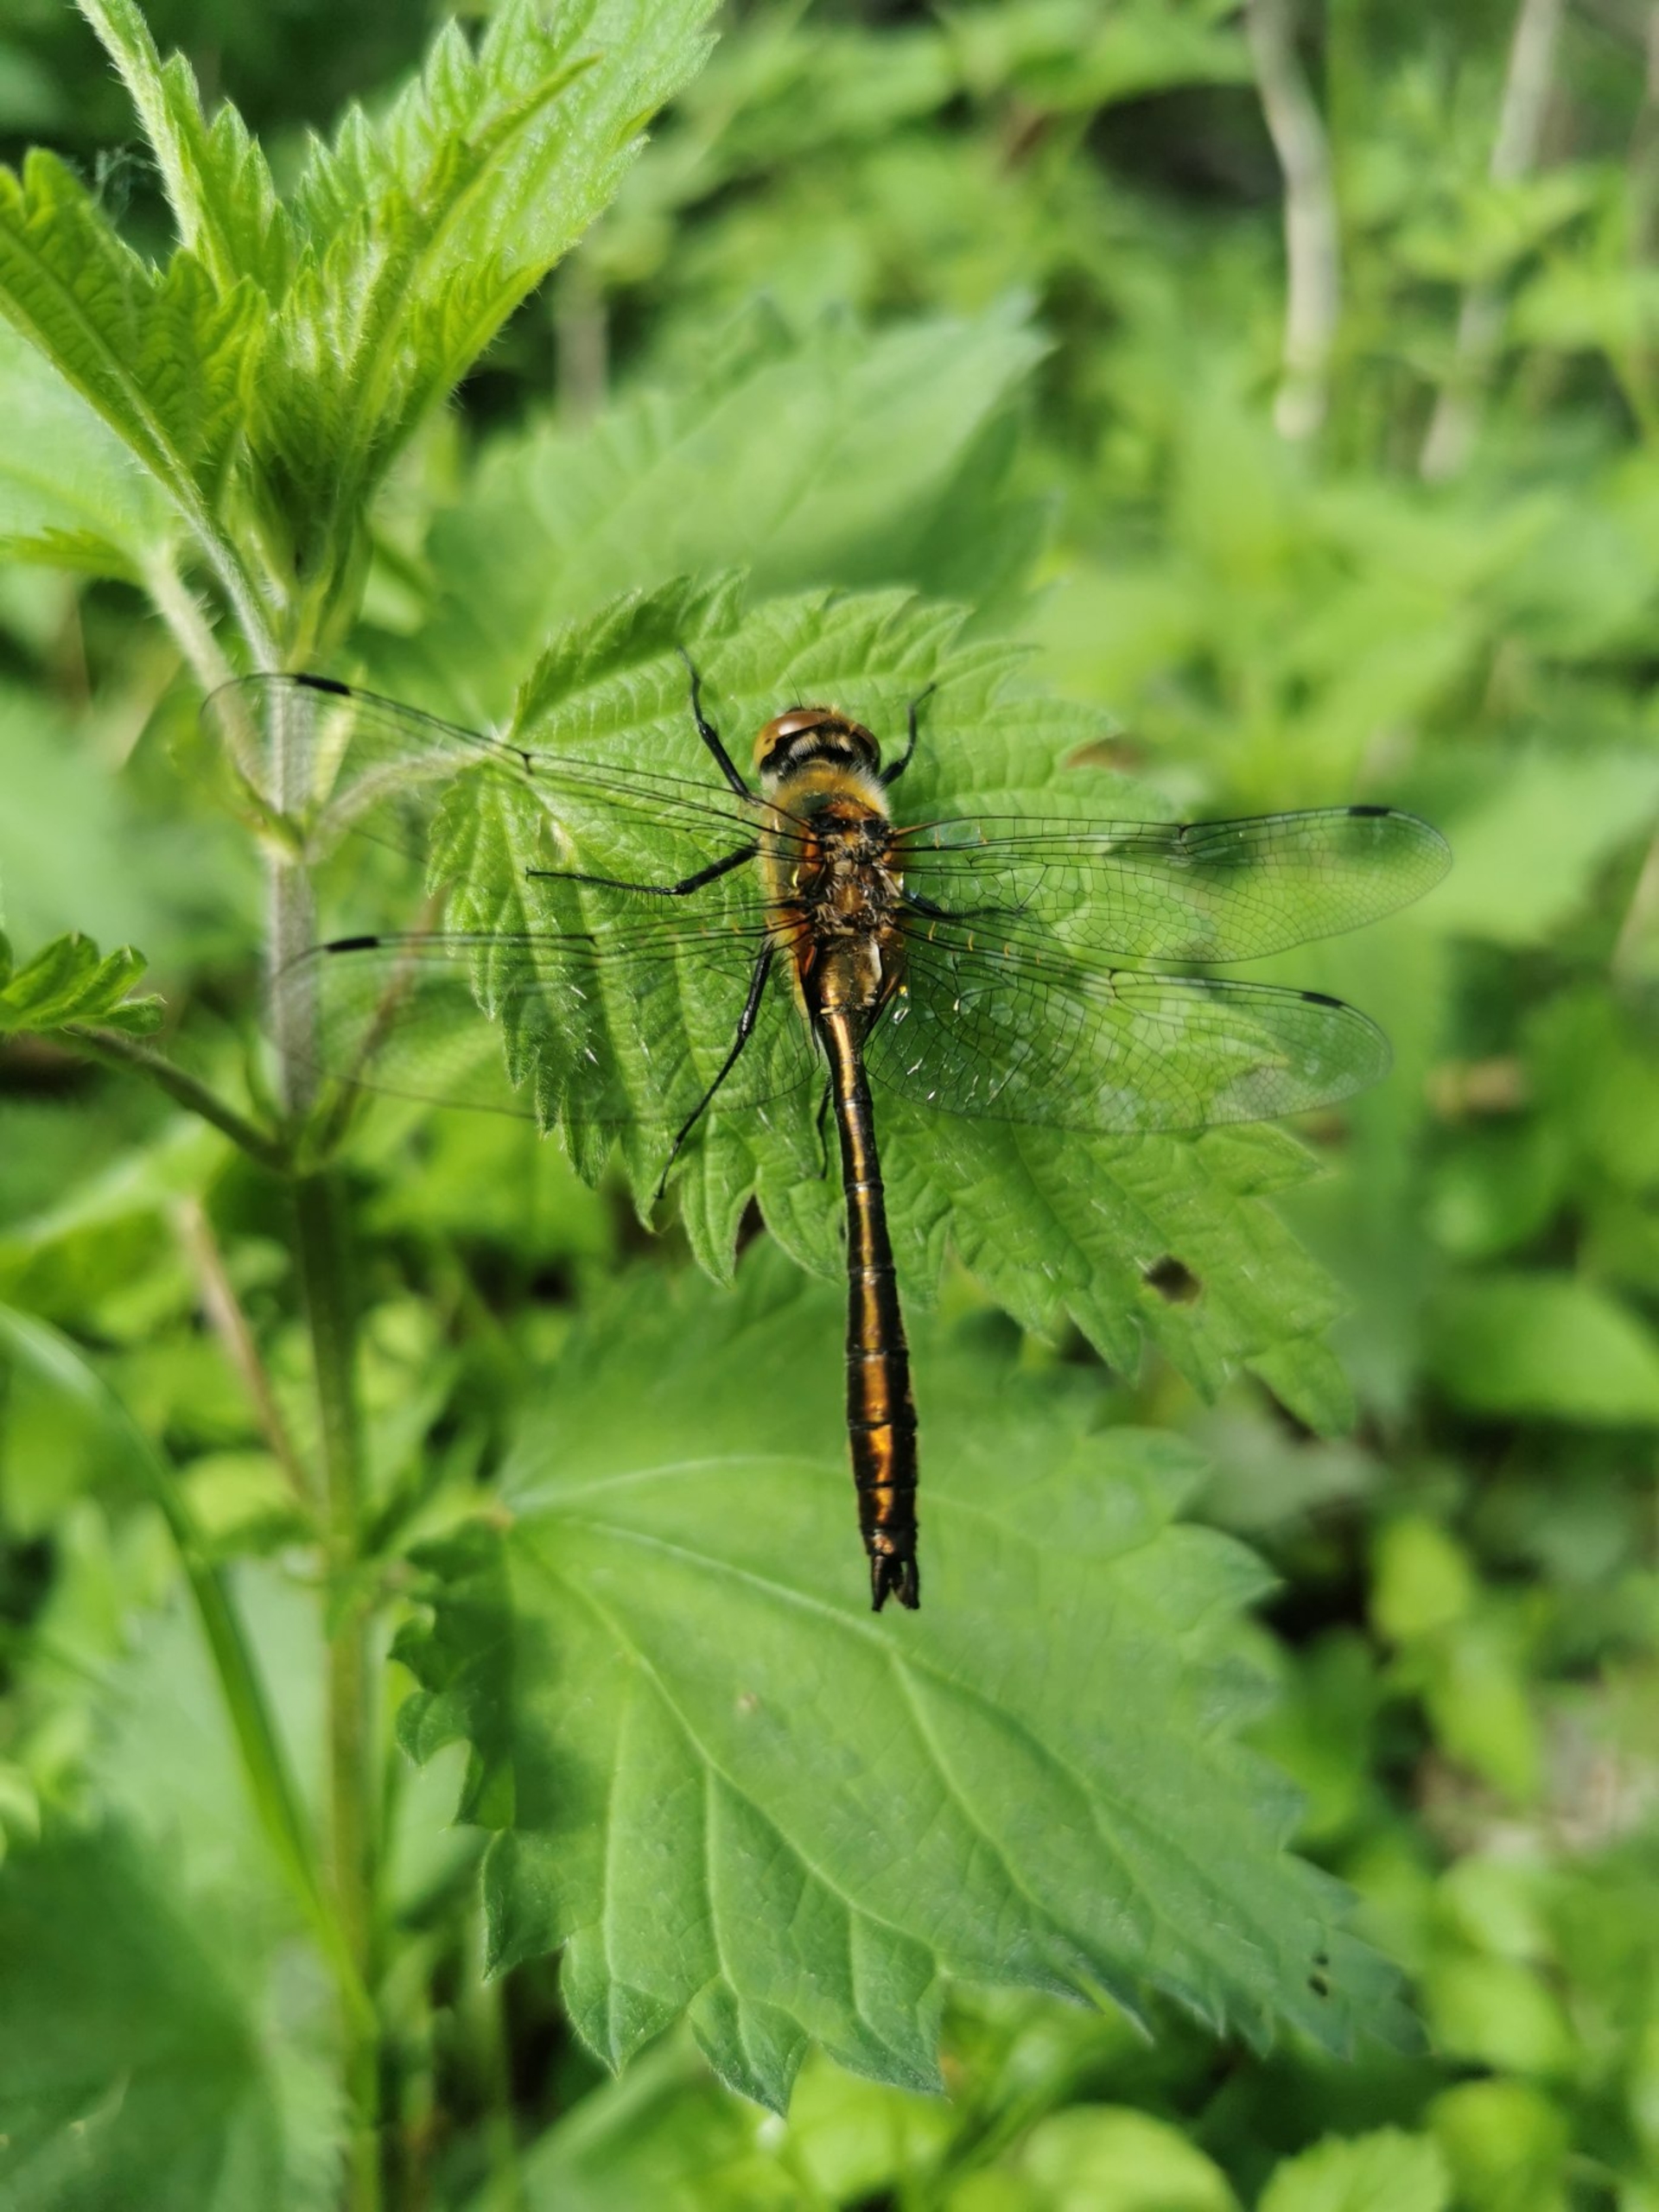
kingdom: Animalia
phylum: Arthropoda
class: Insecta
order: Odonata
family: Corduliidae
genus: Cordulia
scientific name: Cordulia aenea
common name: Grøn smaragdlibel
